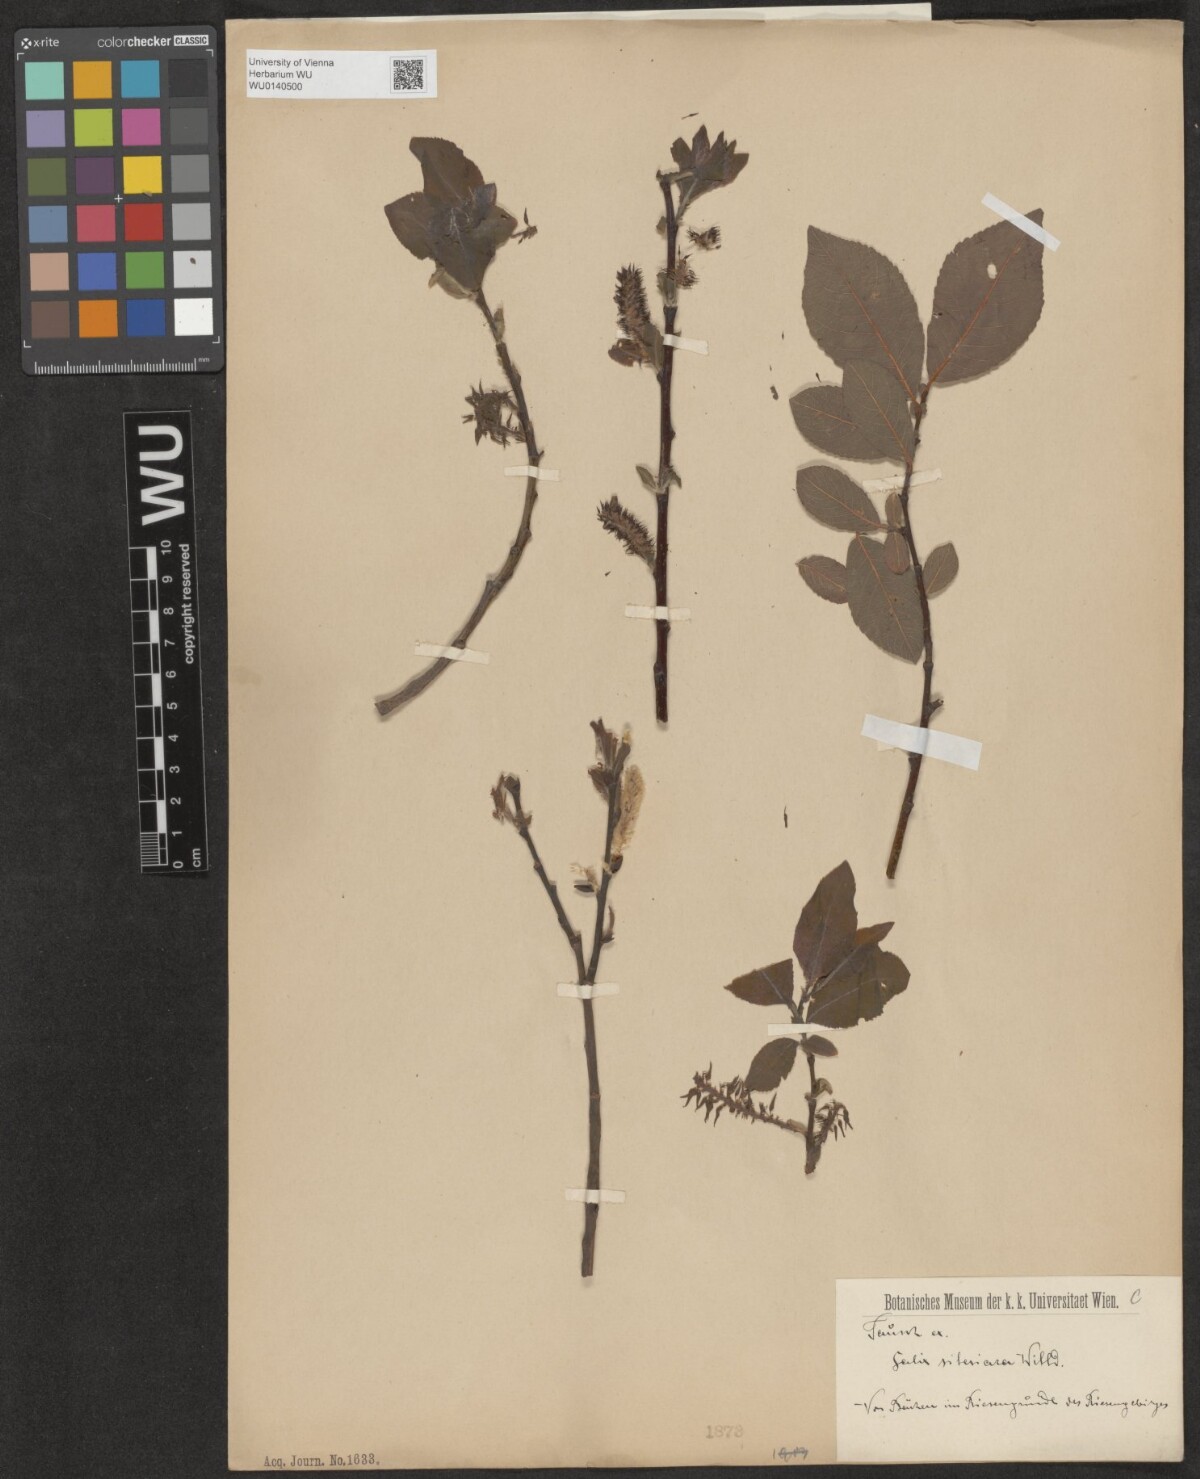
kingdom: Plantae
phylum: Tracheophyta
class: Magnoliopsida
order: Malpighiales
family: Salicaceae
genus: Salix
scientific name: Salix silesiaca
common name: Silesian willow
